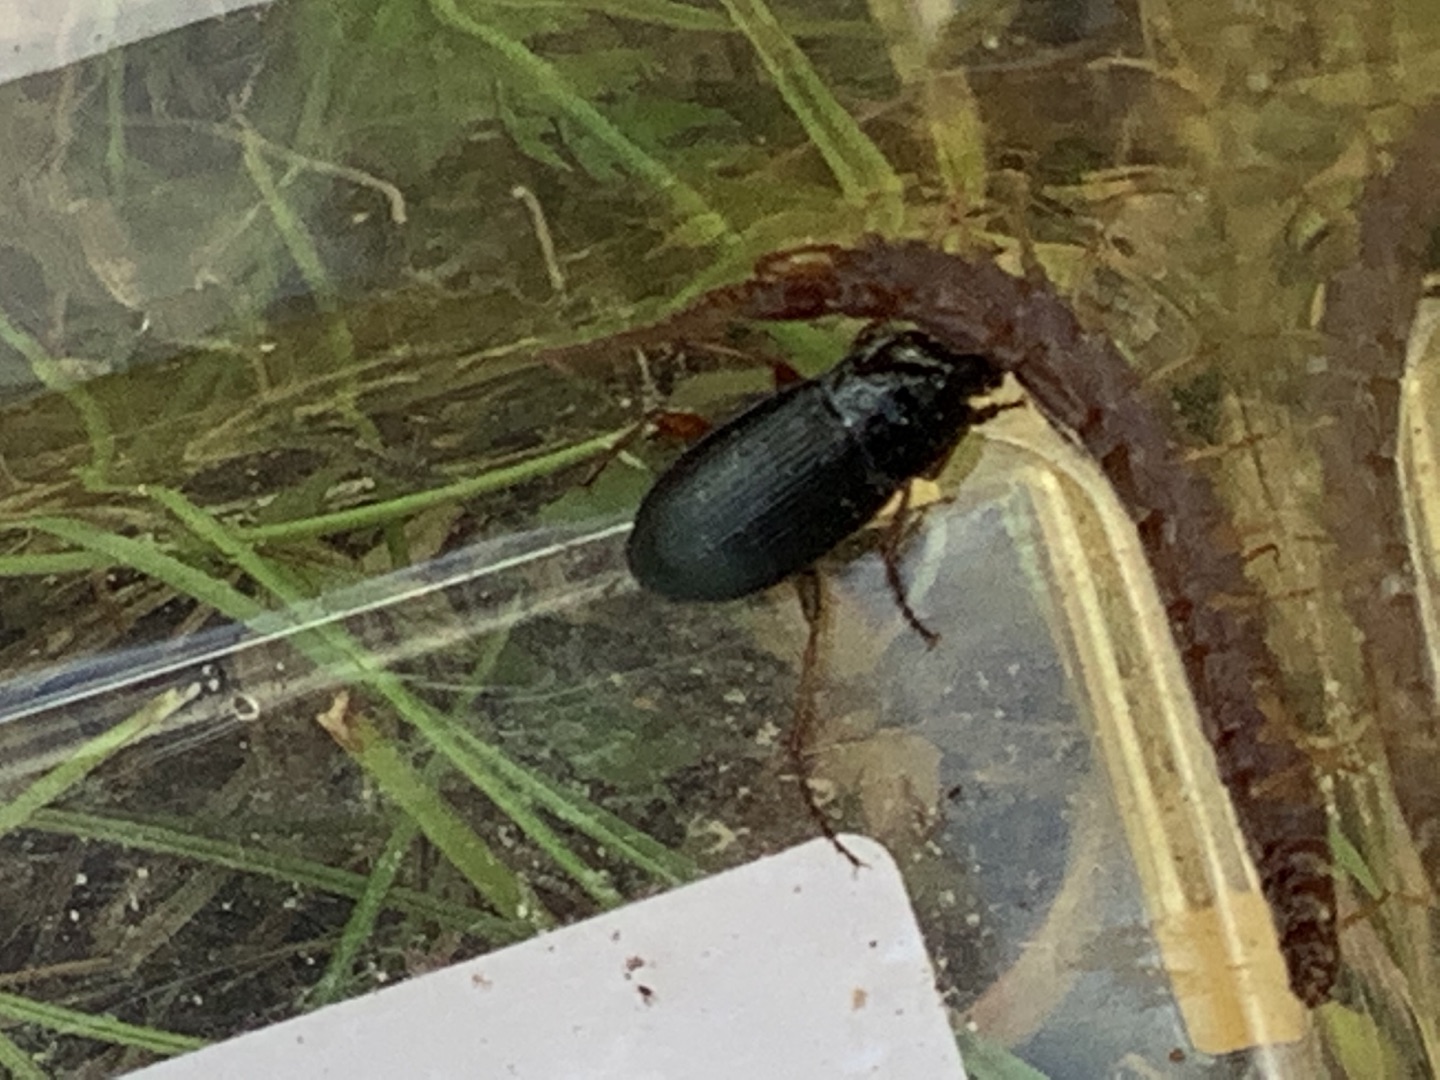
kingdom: Animalia
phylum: Arthropoda
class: Insecta
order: Coleoptera
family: Carabidae
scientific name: Carabidae
